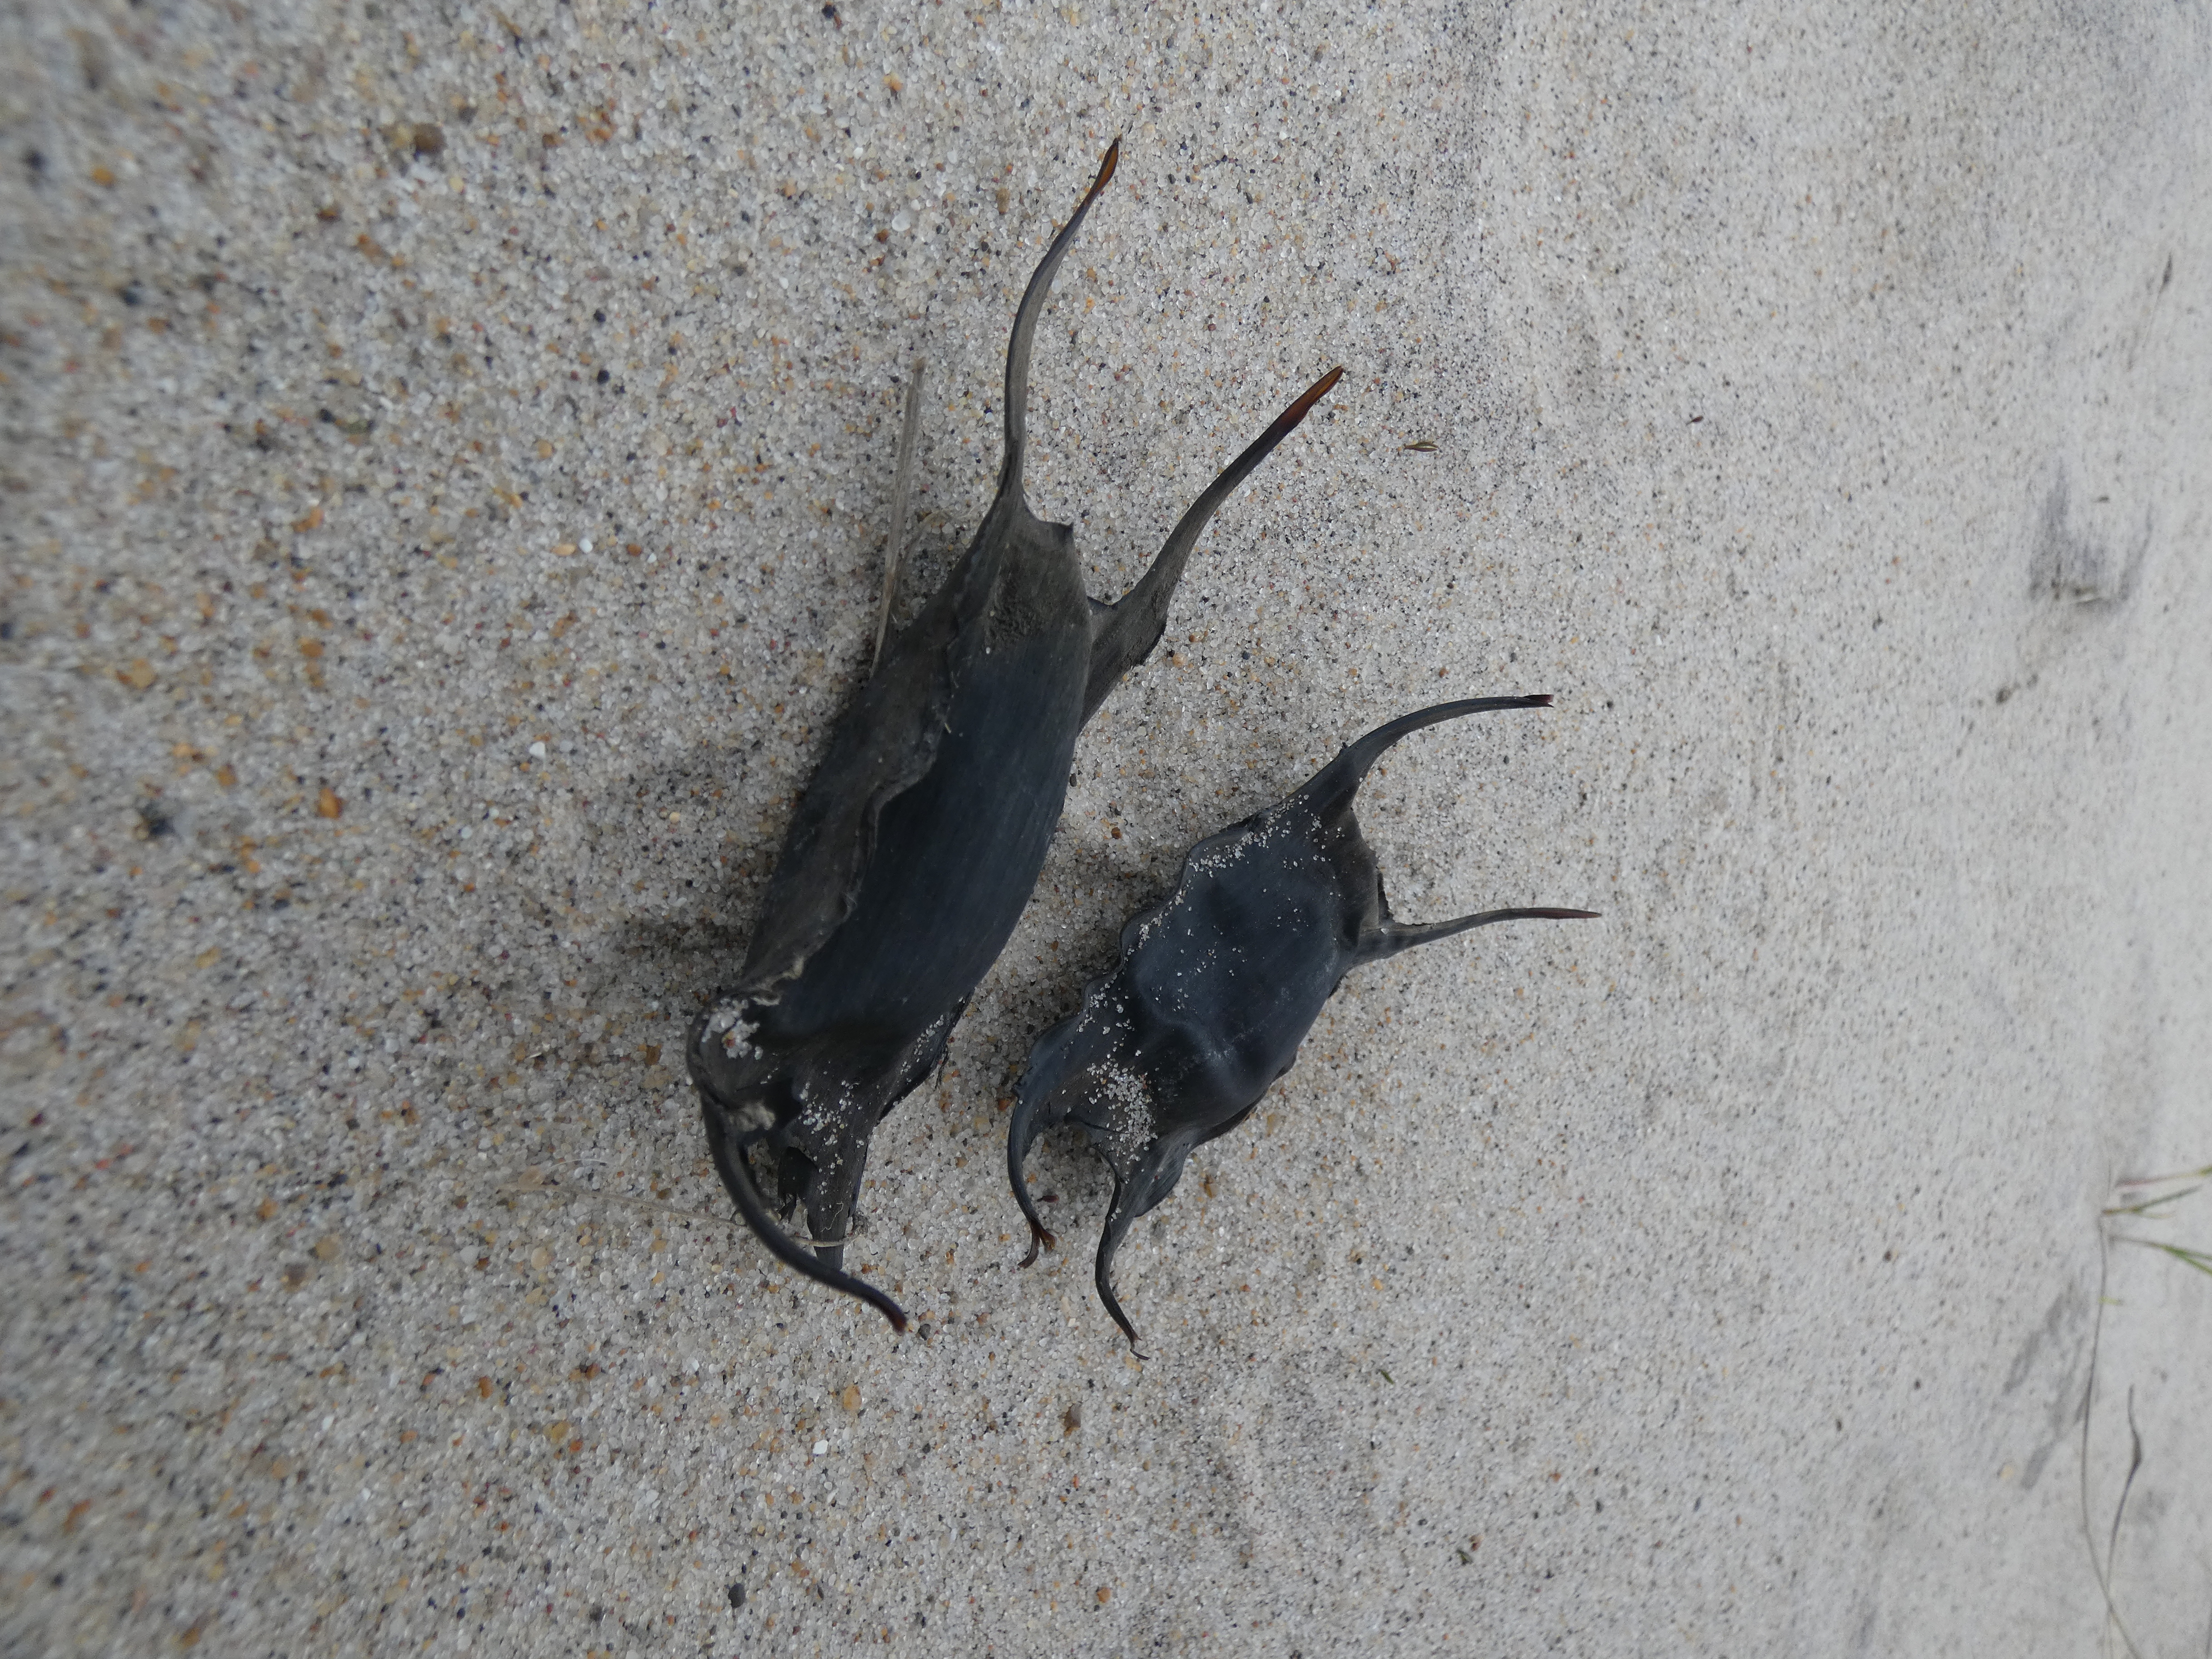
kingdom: Animalia
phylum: Chordata
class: Elasmobranchii
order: Rajiformes
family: Rajidae
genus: Raja
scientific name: Raja clavata
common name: Sømrokke
